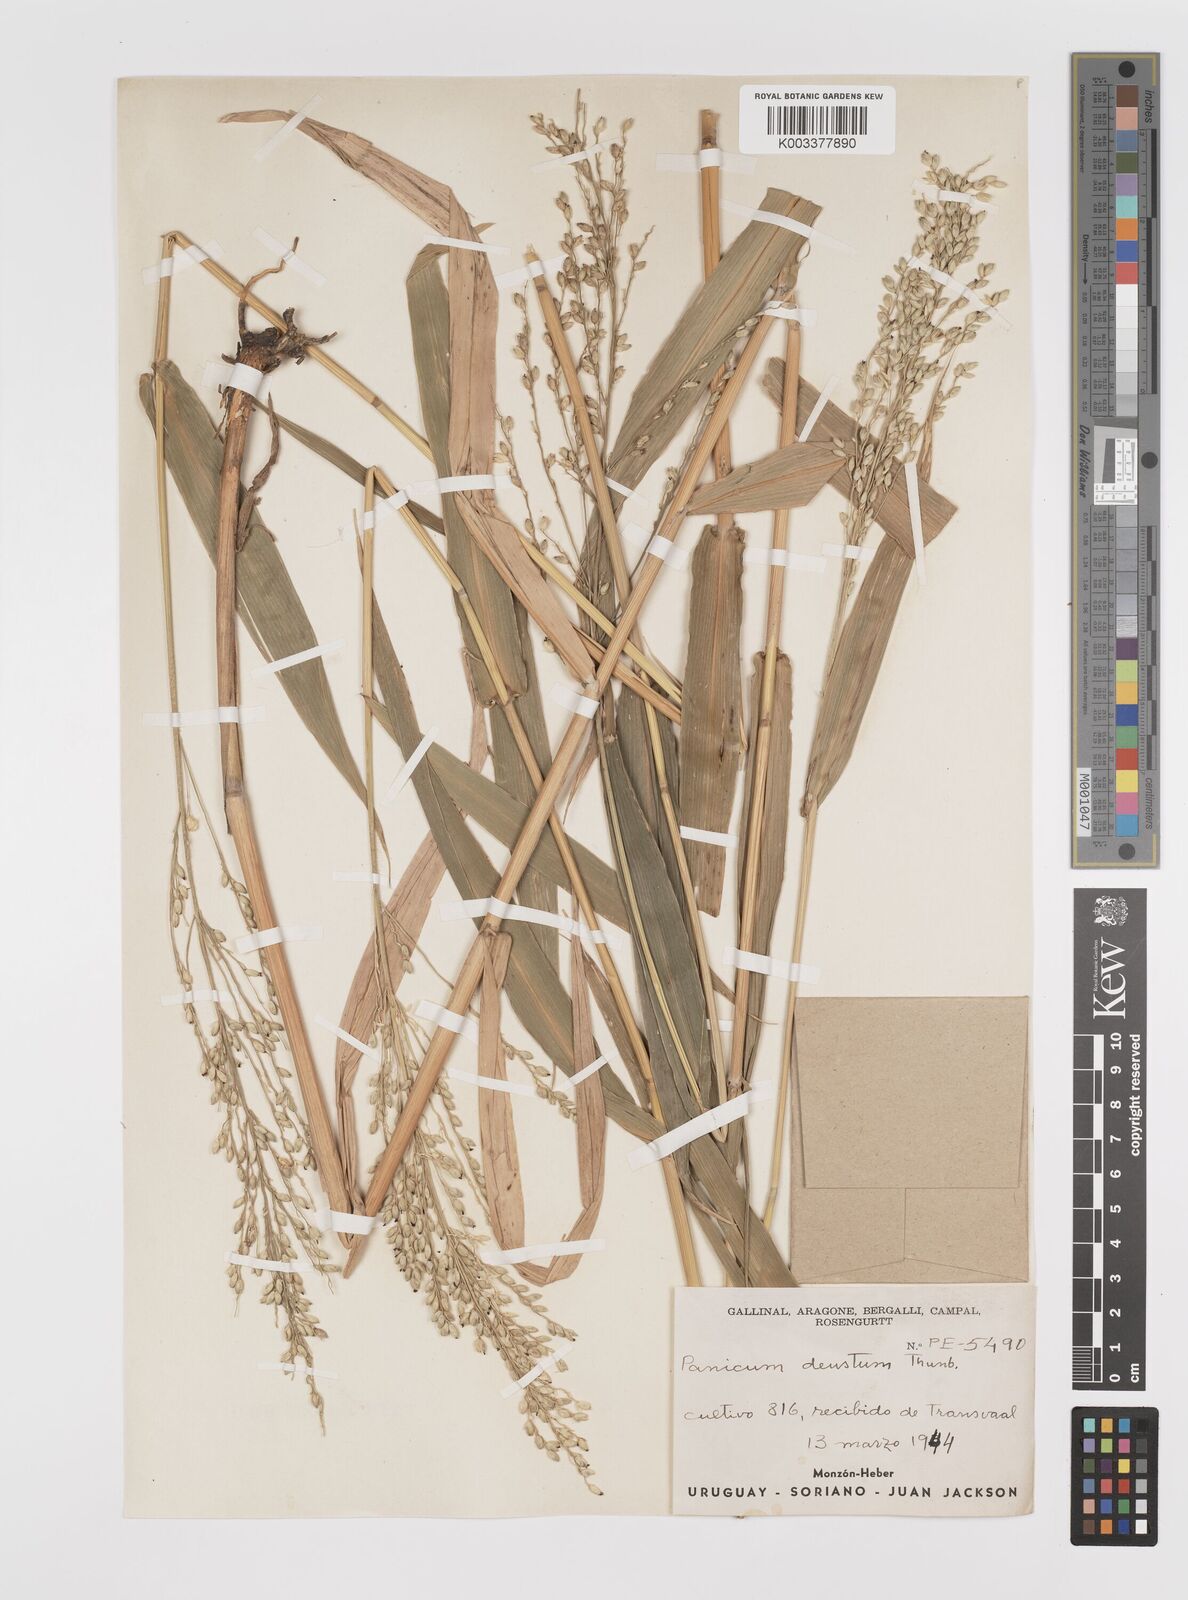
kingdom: Plantae
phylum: Tracheophyta
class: Liliopsida
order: Poales
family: Poaceae
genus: Panicum
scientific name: Panicum
